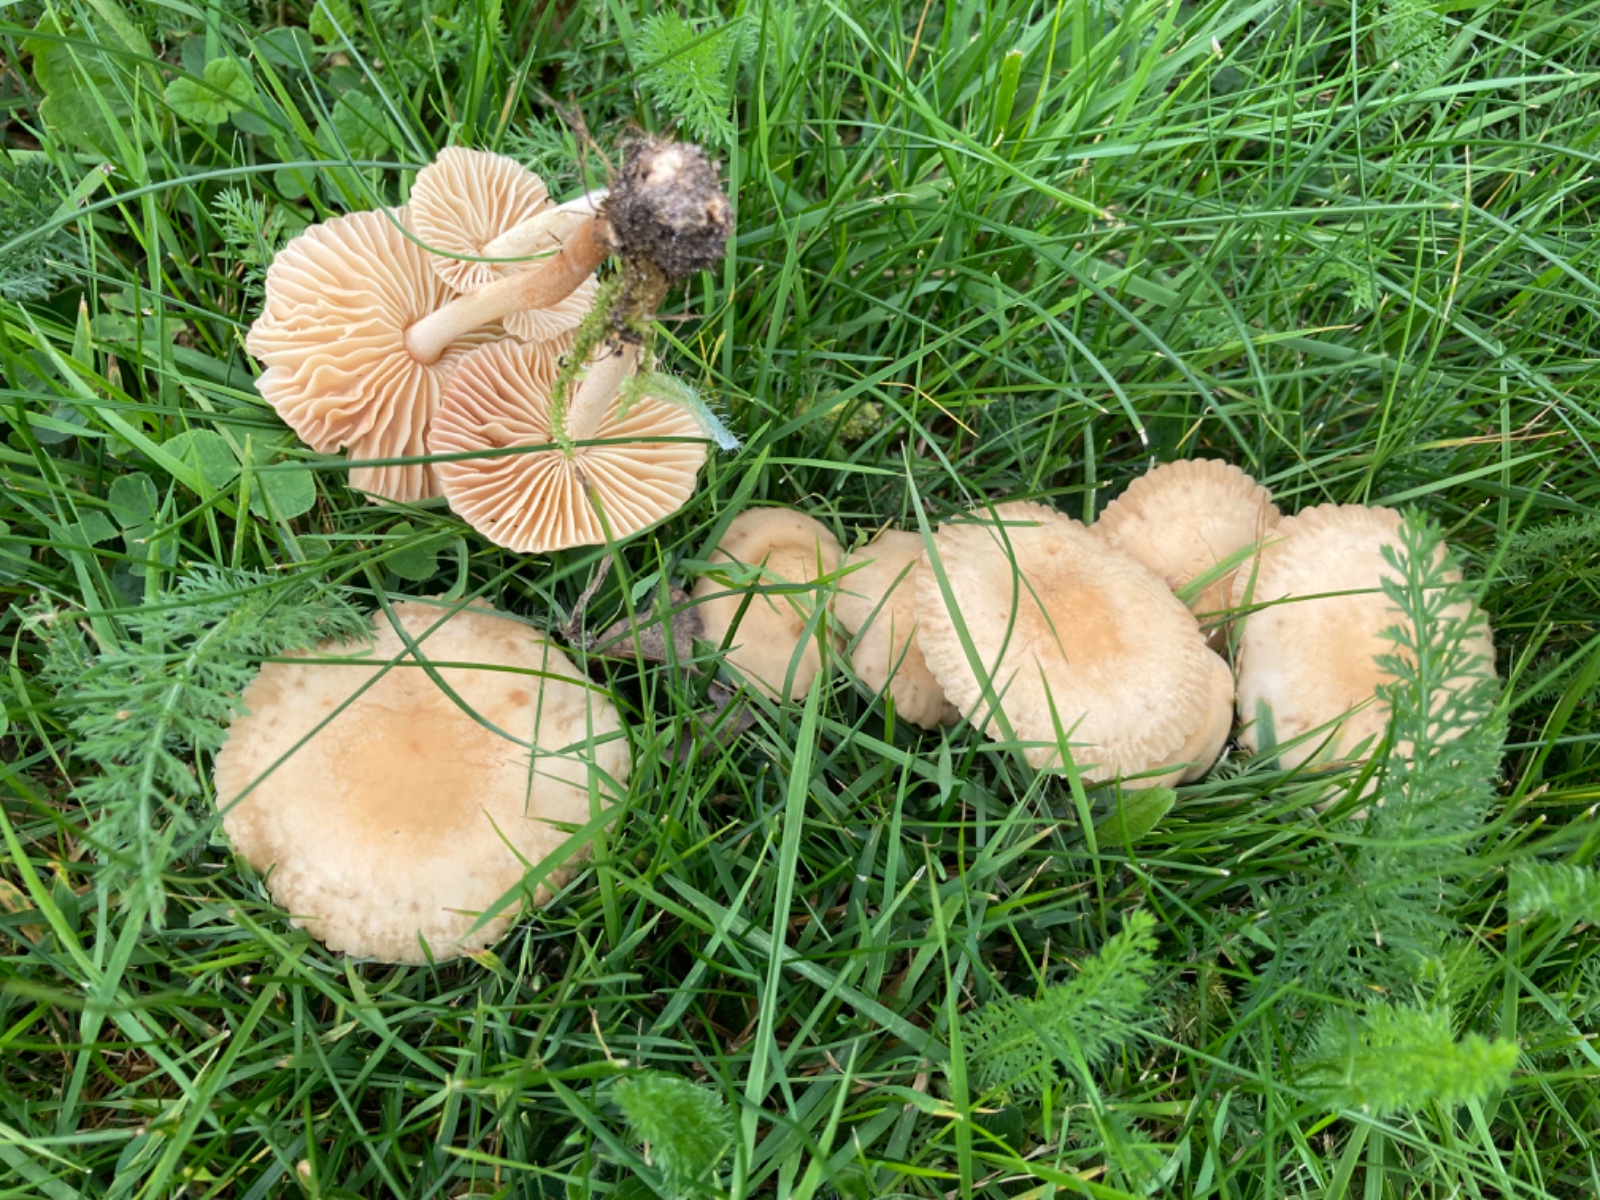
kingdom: Fungi
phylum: Basidiomycota
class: Agaricomycetes
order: Agaricales
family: Marasmiaceae
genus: Marasmius
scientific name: Marasmius oreades
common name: elledans-bruskhat
